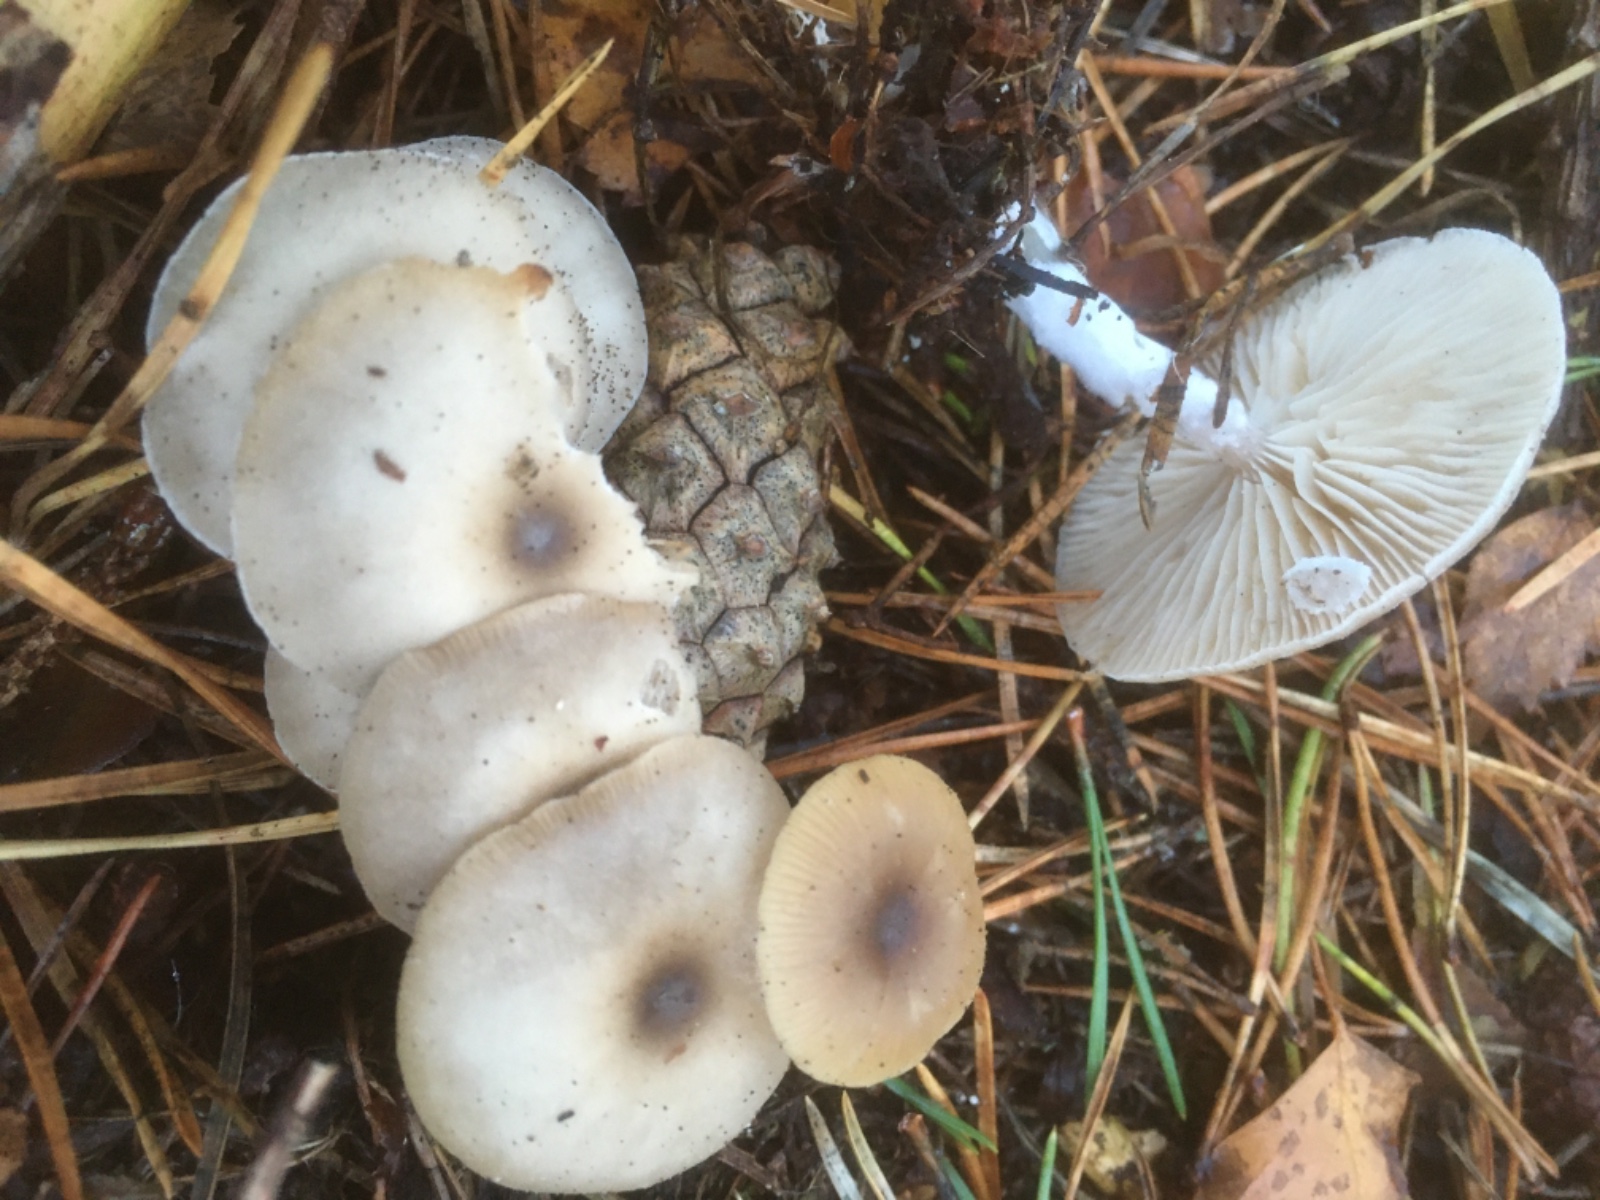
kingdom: Fungi
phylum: Basidiomycota
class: Agaricomycetes
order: Agaricales
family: Tricholomataceae
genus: Clitocybe
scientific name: Clitocybe
